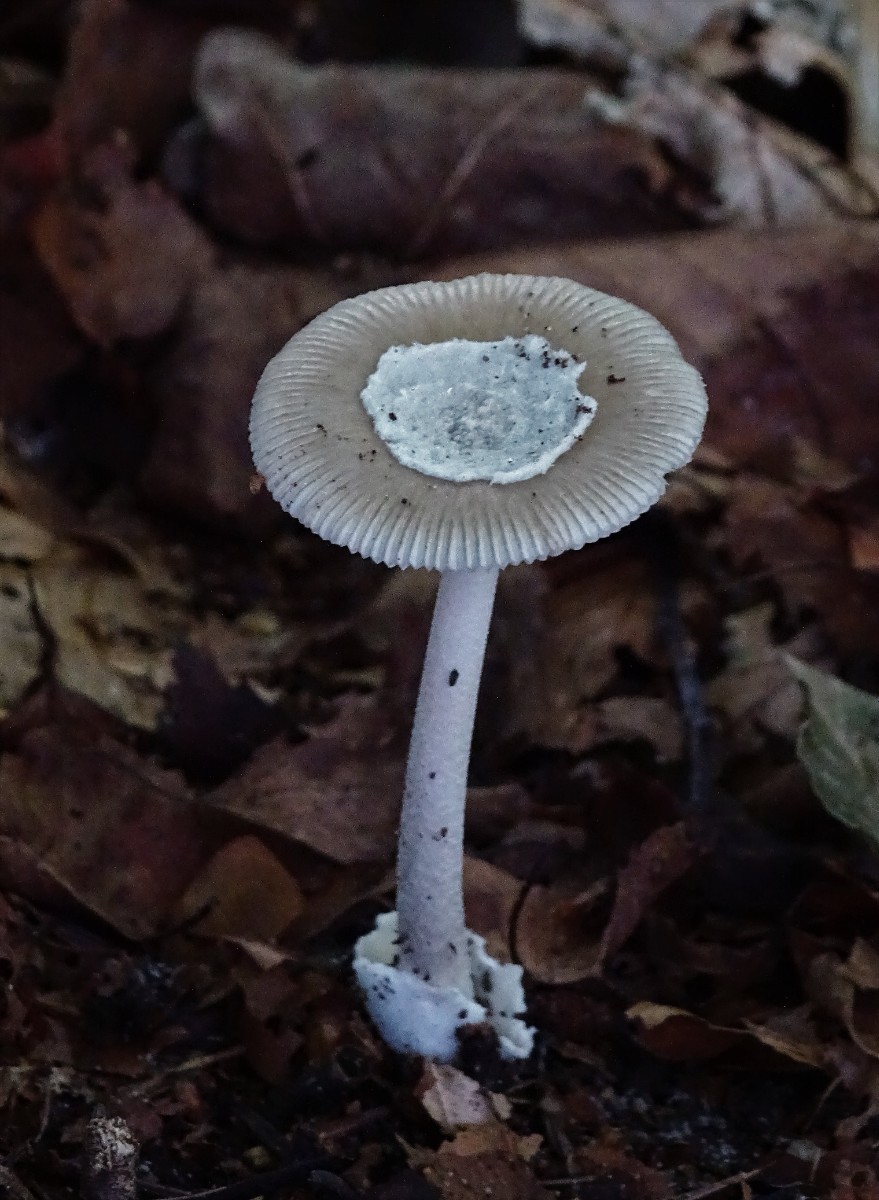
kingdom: Fungi
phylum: Basidiomycota
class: Agaricomycetes
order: Agaricales
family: Amanitaceae
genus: Amanita
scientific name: Amanita submembranacea
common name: gråspættet kam-fluesvamp
